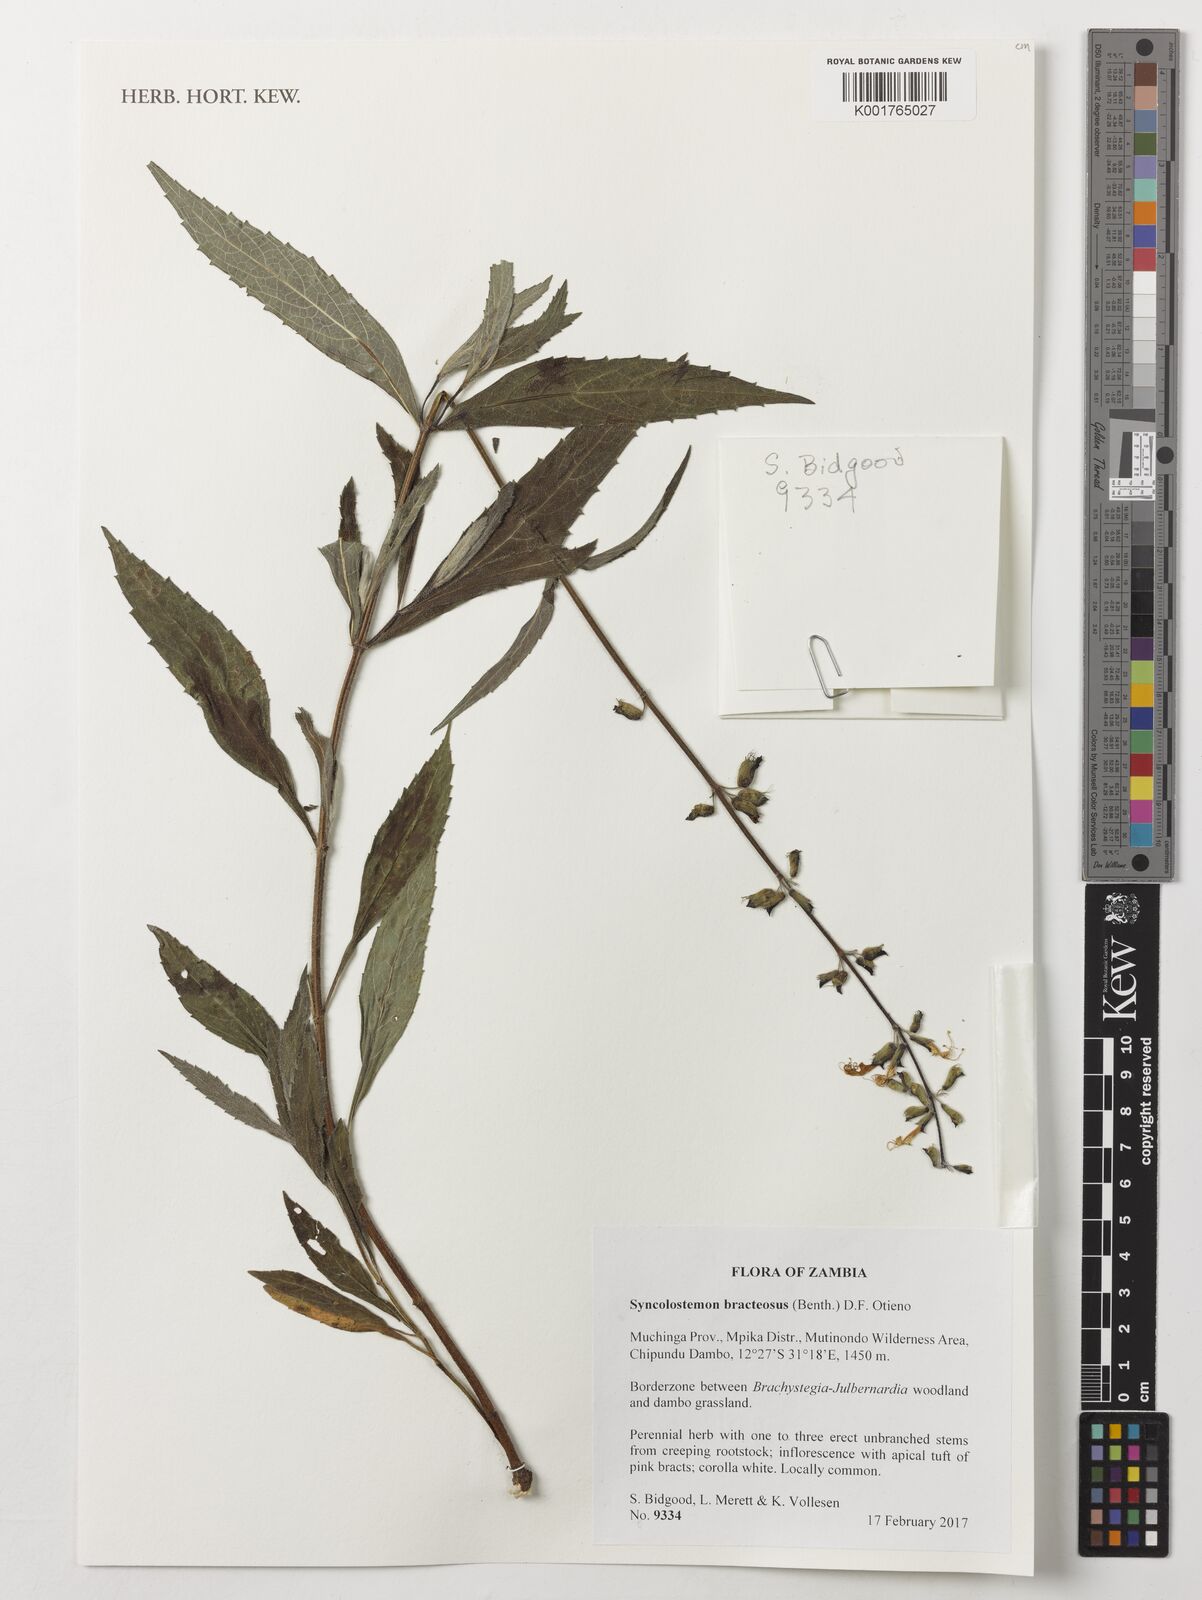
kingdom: Plantae
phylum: Tracheophyta
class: Magnoliopsida
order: Lamiales
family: Lamiaceae
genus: Syncolostemon
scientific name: Syncolostemon bracteosus
